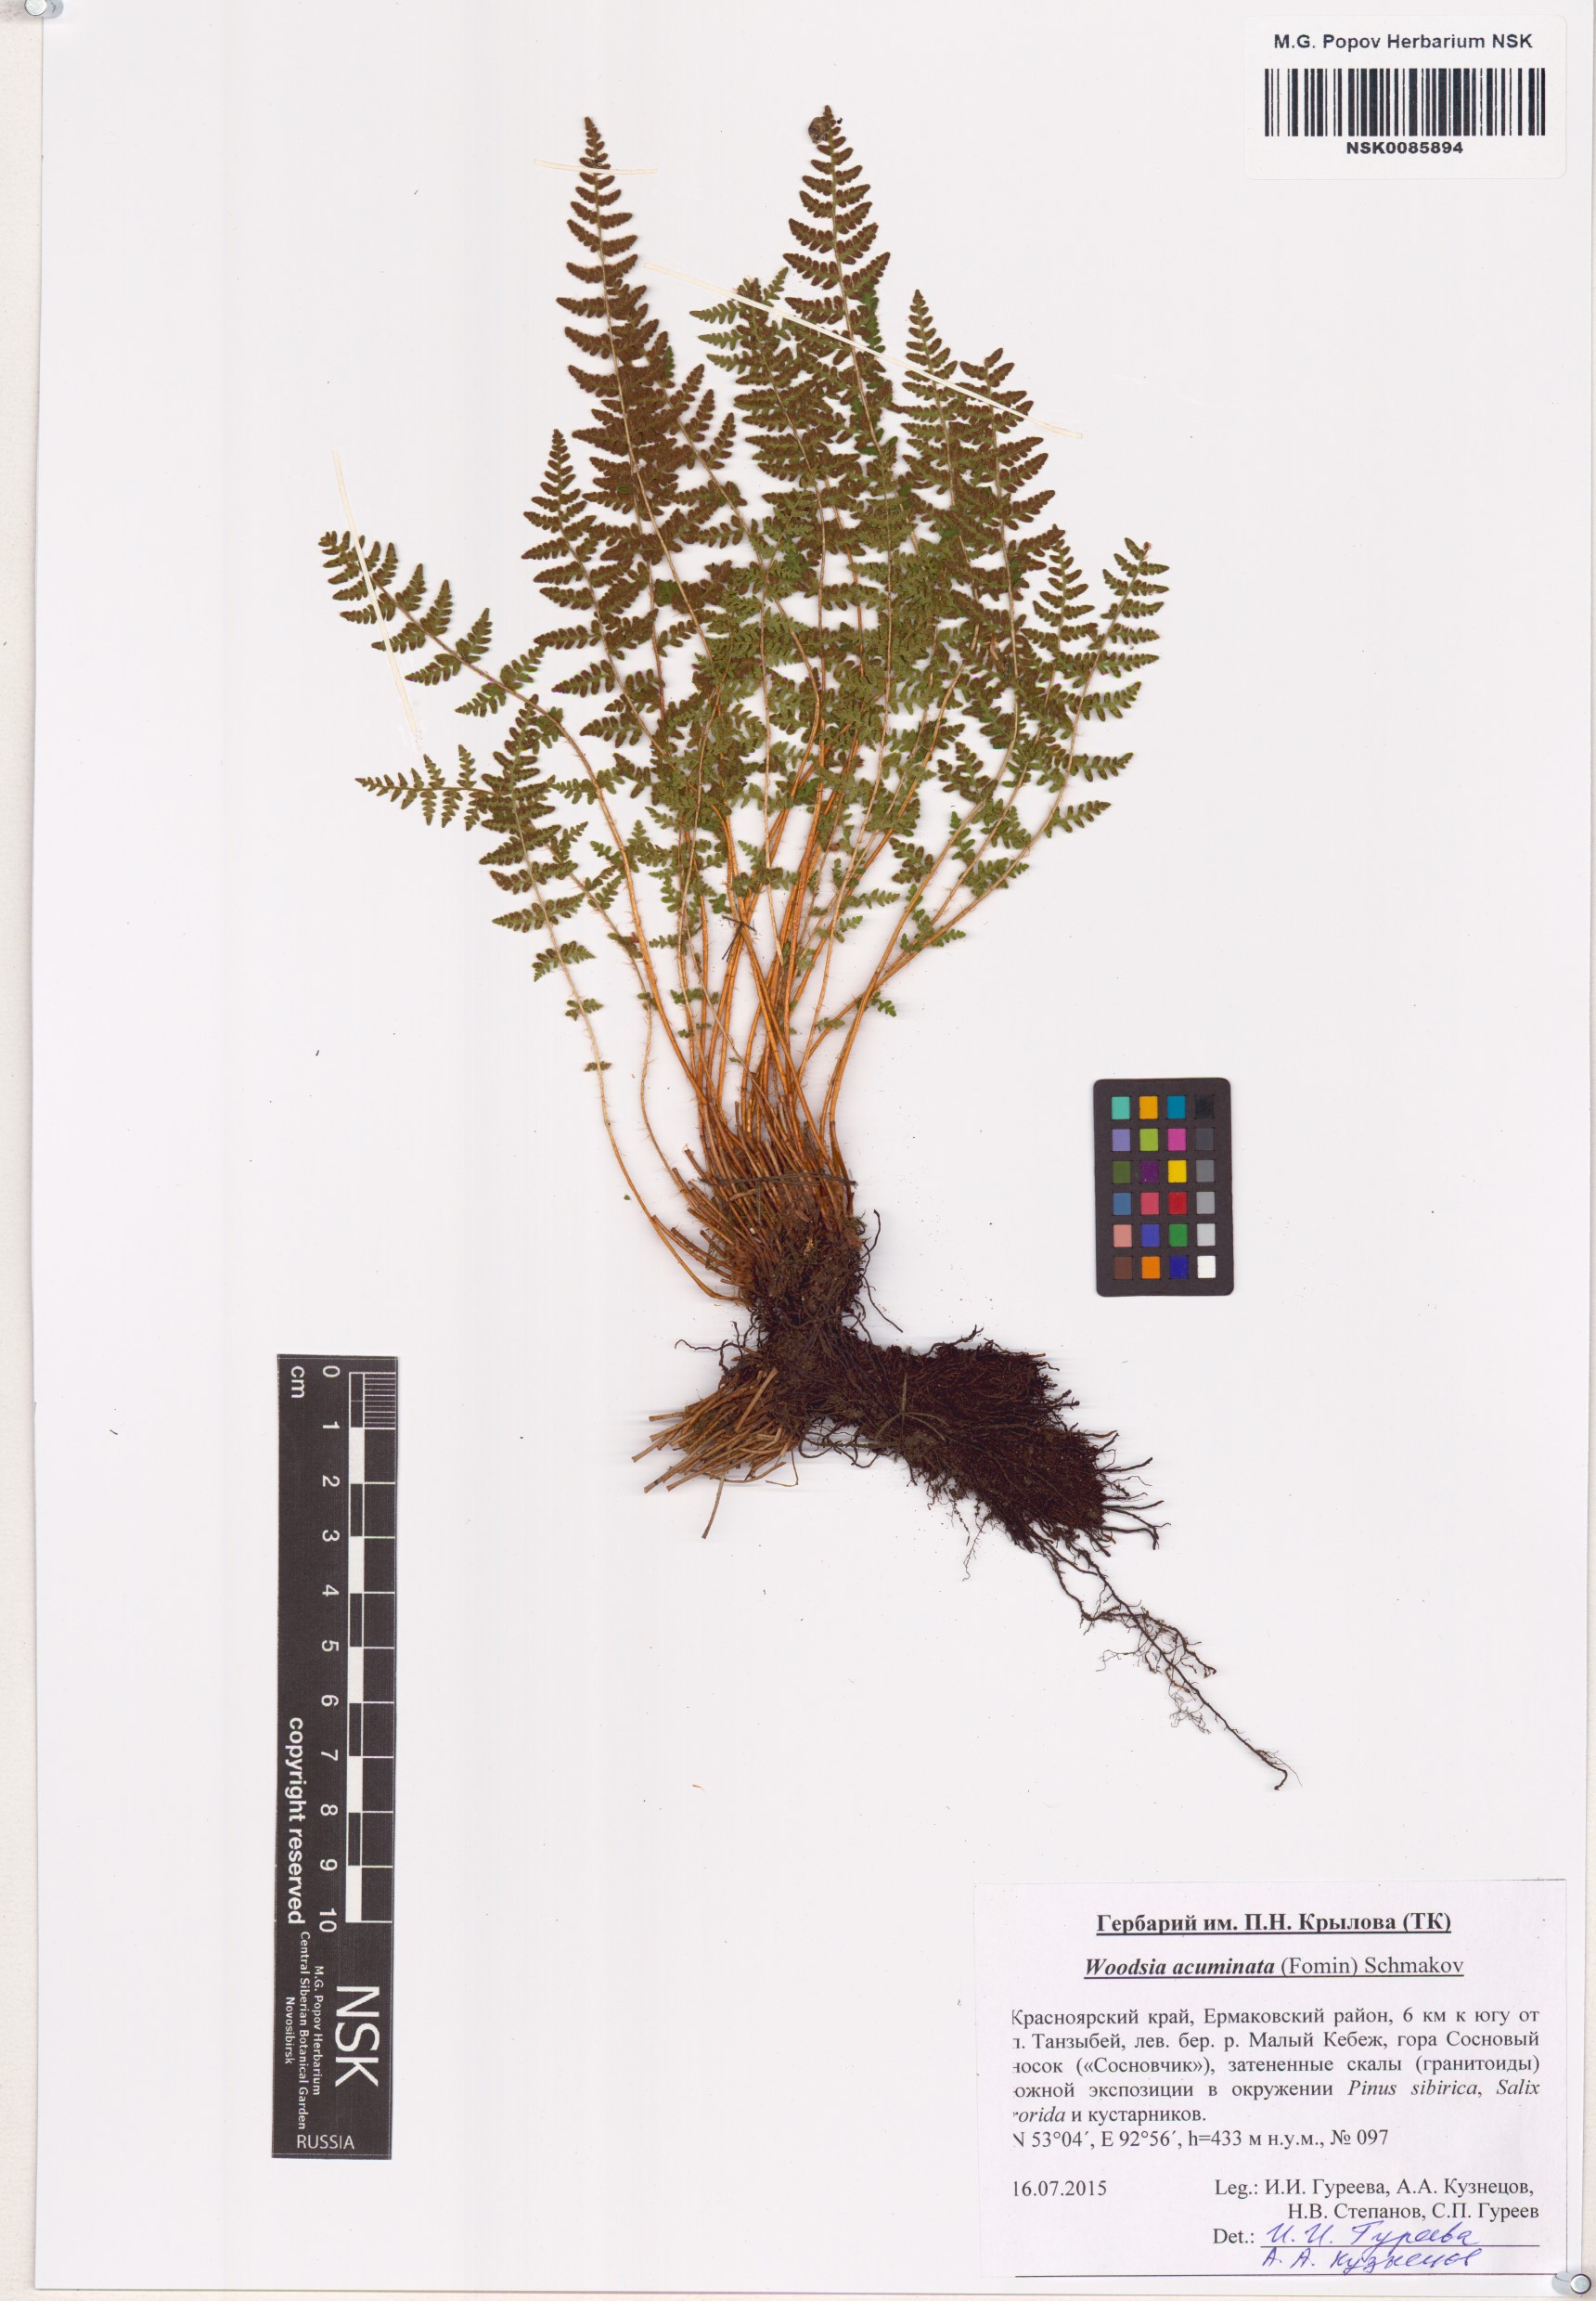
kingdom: Plantae
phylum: Tracheophyta
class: Polypodiopsida
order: Polypodiales
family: Woodsiaceae
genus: Woodsia
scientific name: Woodsia ilvensis
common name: Fragrant woodsia
